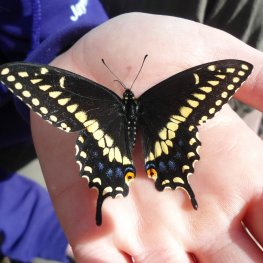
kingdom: Animalia
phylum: Arthropoda
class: Insecta
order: Lepidoptera
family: Papilionidae
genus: Papilio
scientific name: Papilio polyxenes
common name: Black Swallowtail
